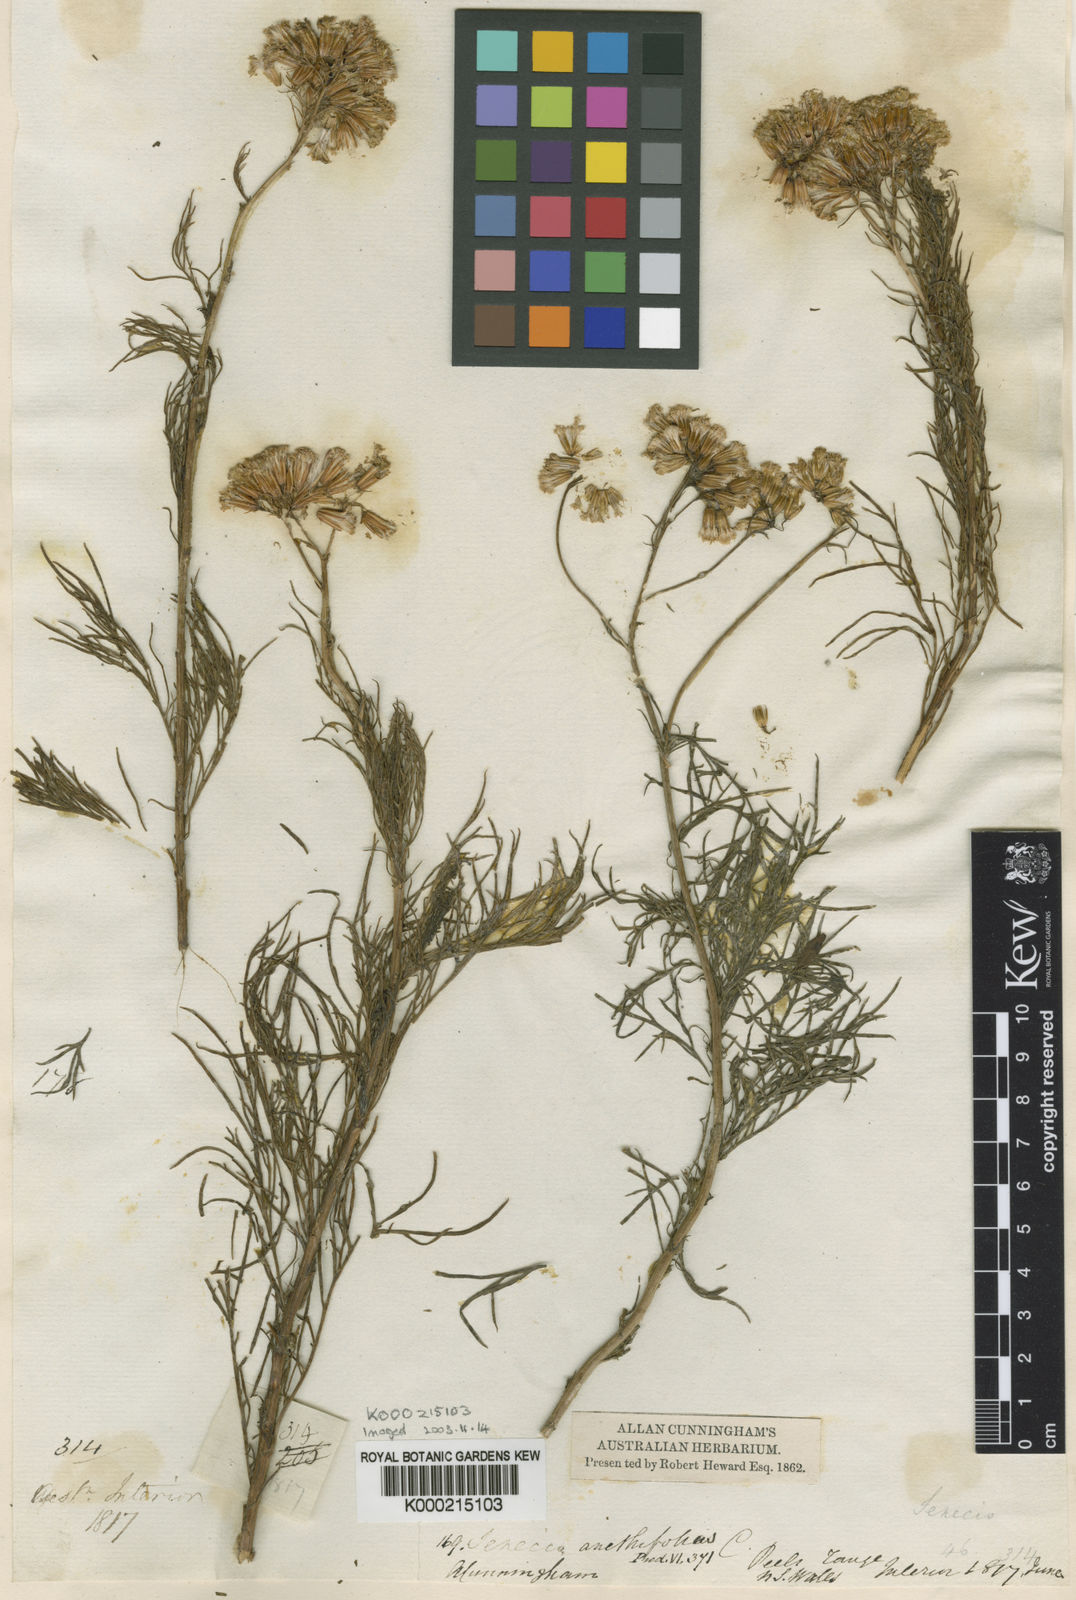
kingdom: Plantae
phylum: Tracheophyta
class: Magnoliopsida
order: Asterales
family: Asteraceae
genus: Senecio
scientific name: Senecio anethifolius
